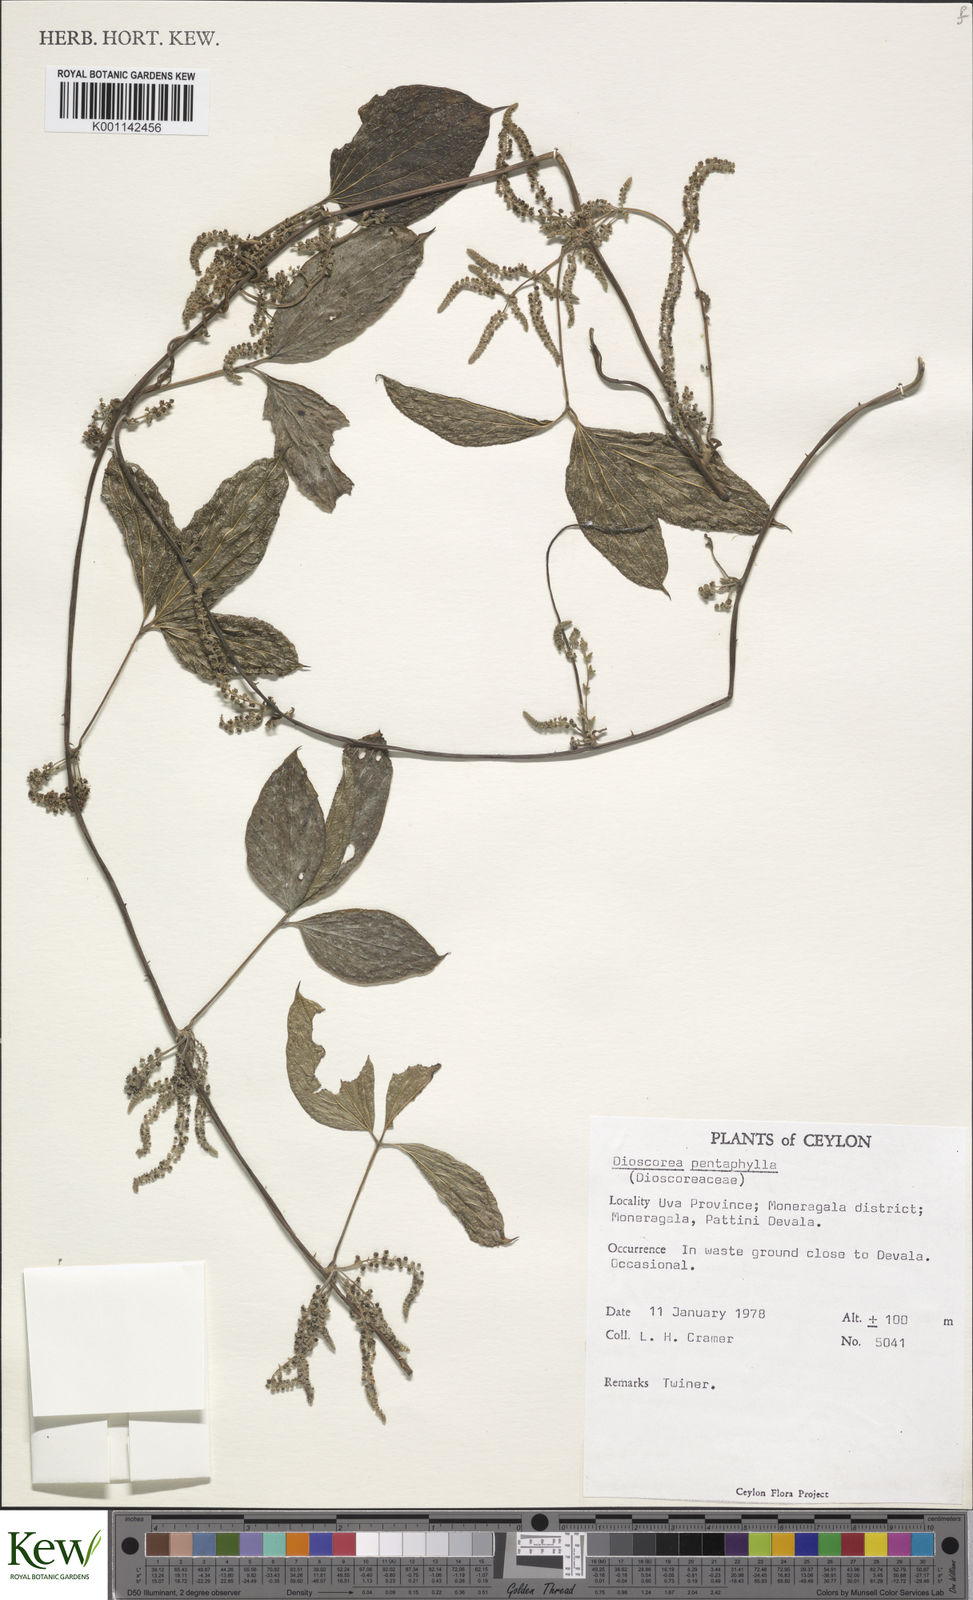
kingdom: Plantae
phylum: Tracheophyta
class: Liliopsida
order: Dioscoreales
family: Dioscoreaceae
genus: Dioscorea
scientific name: Dioscorea pentaphylla
